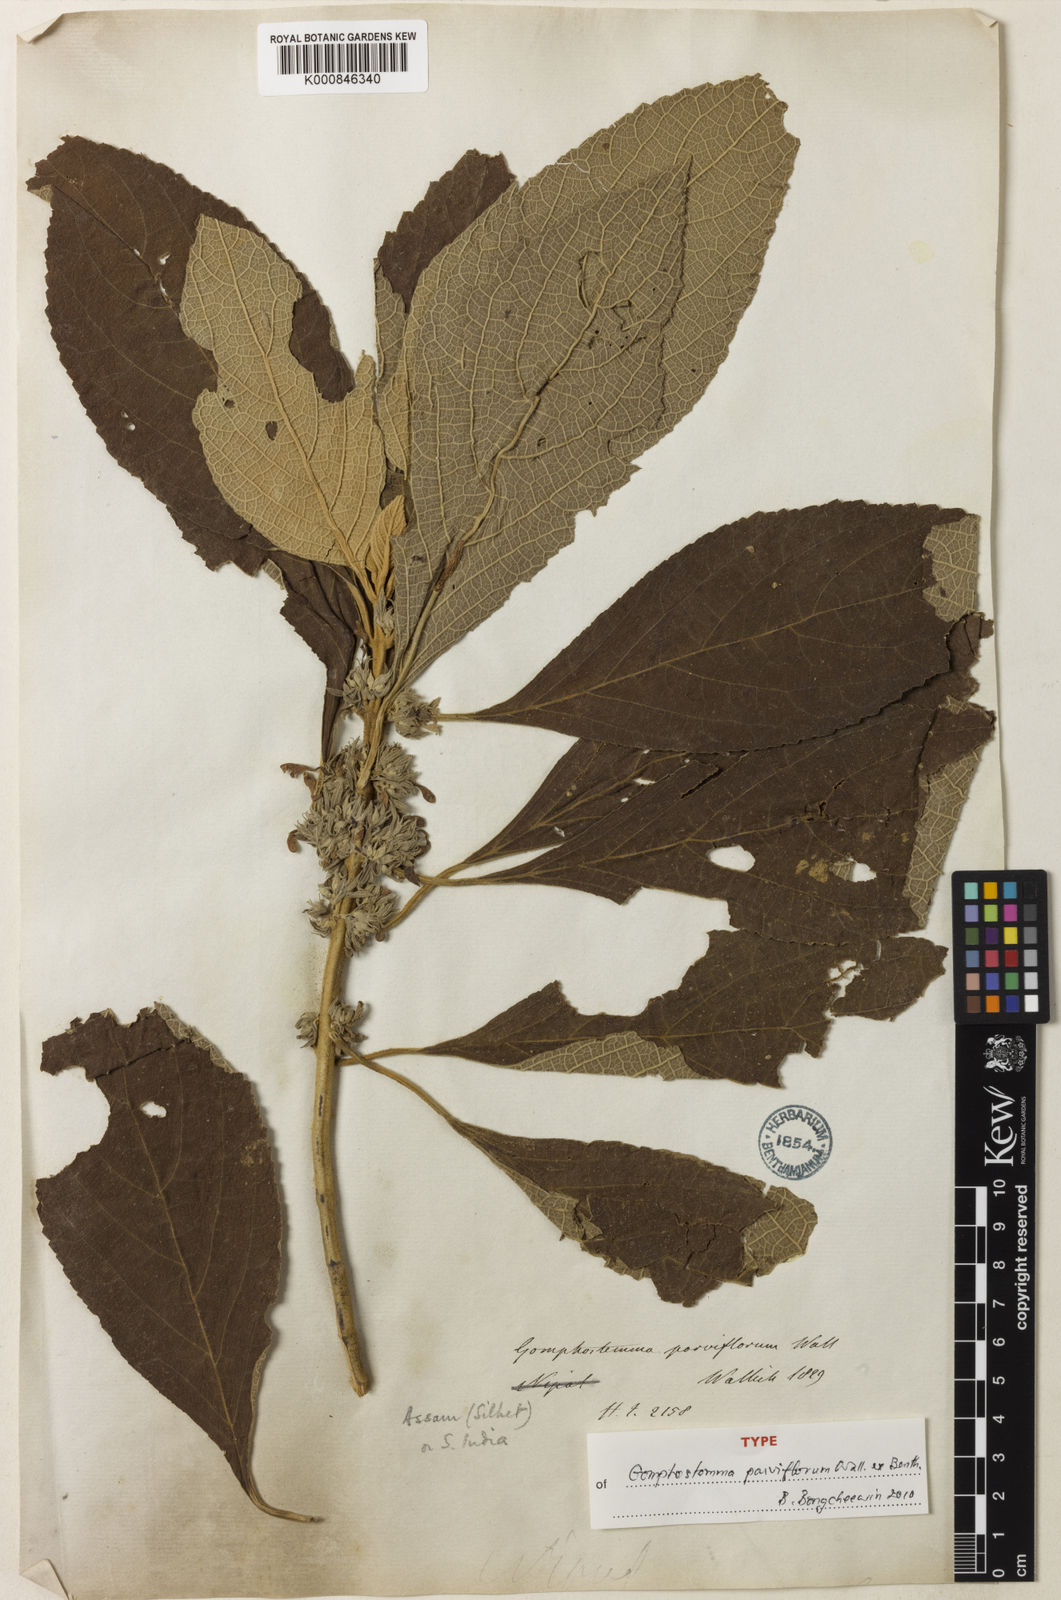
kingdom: Plantae
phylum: Tracheophyta
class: Magnoliopsida
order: Lamiales
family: Lamiaceae
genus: Gomphostemma
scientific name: Gomphostemma parviflorum
